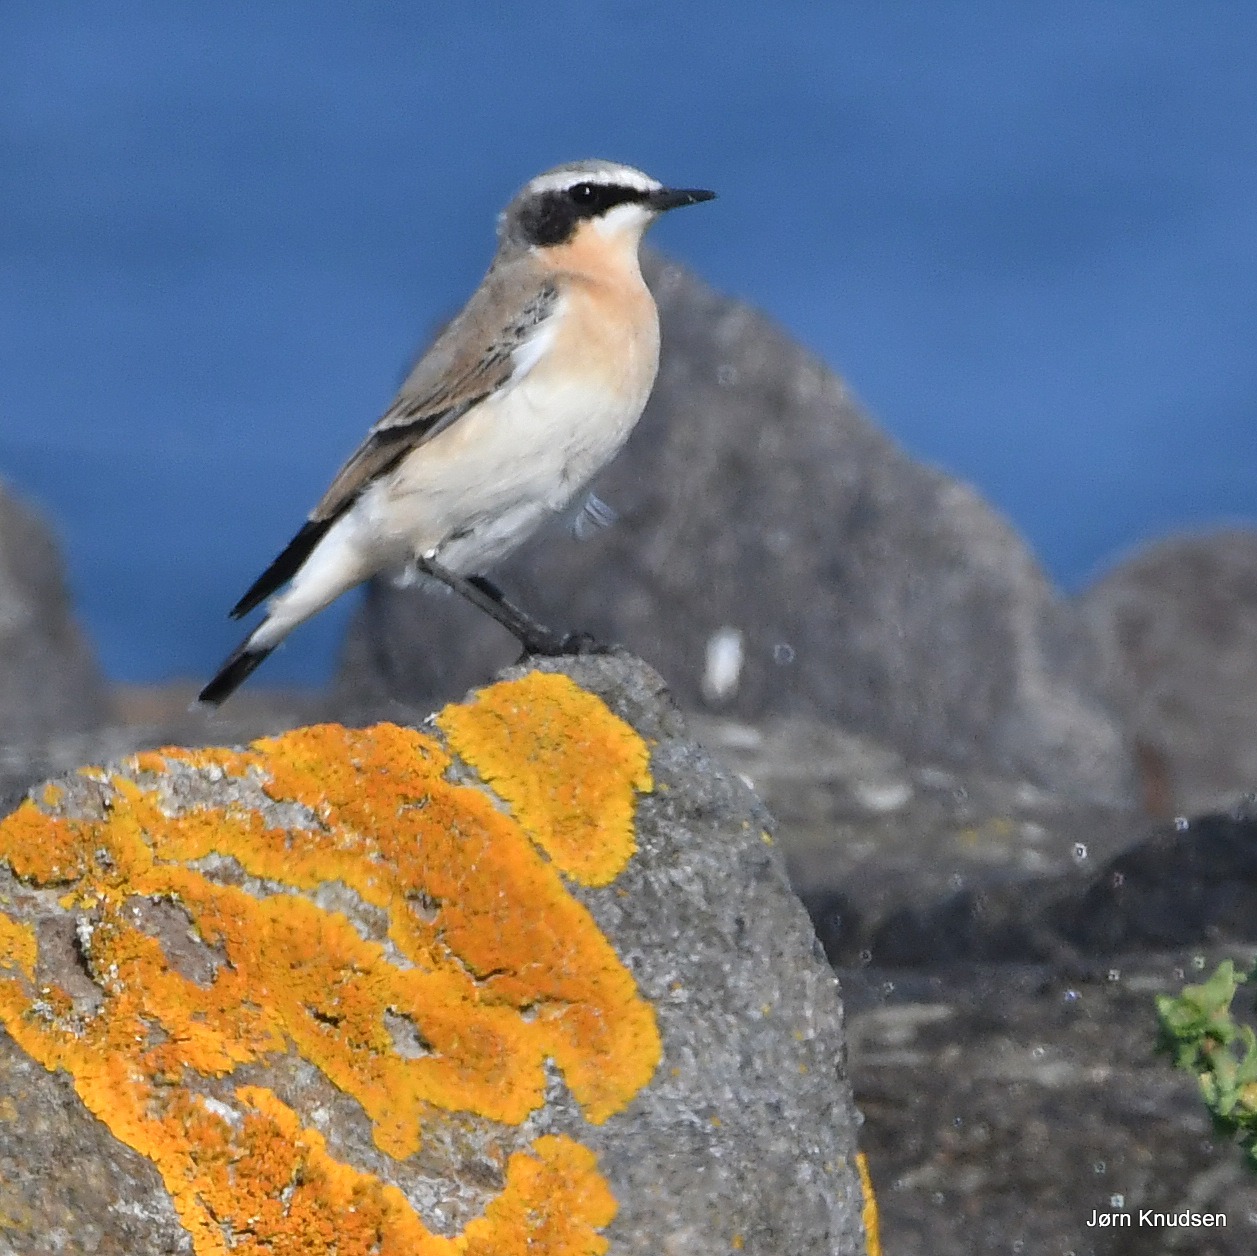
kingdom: Animalia
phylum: Chordata
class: Aves
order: Passeriformes
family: Muscicapidae
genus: Oenanthe
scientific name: Oenanthe oenanthe
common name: Stenpikker
